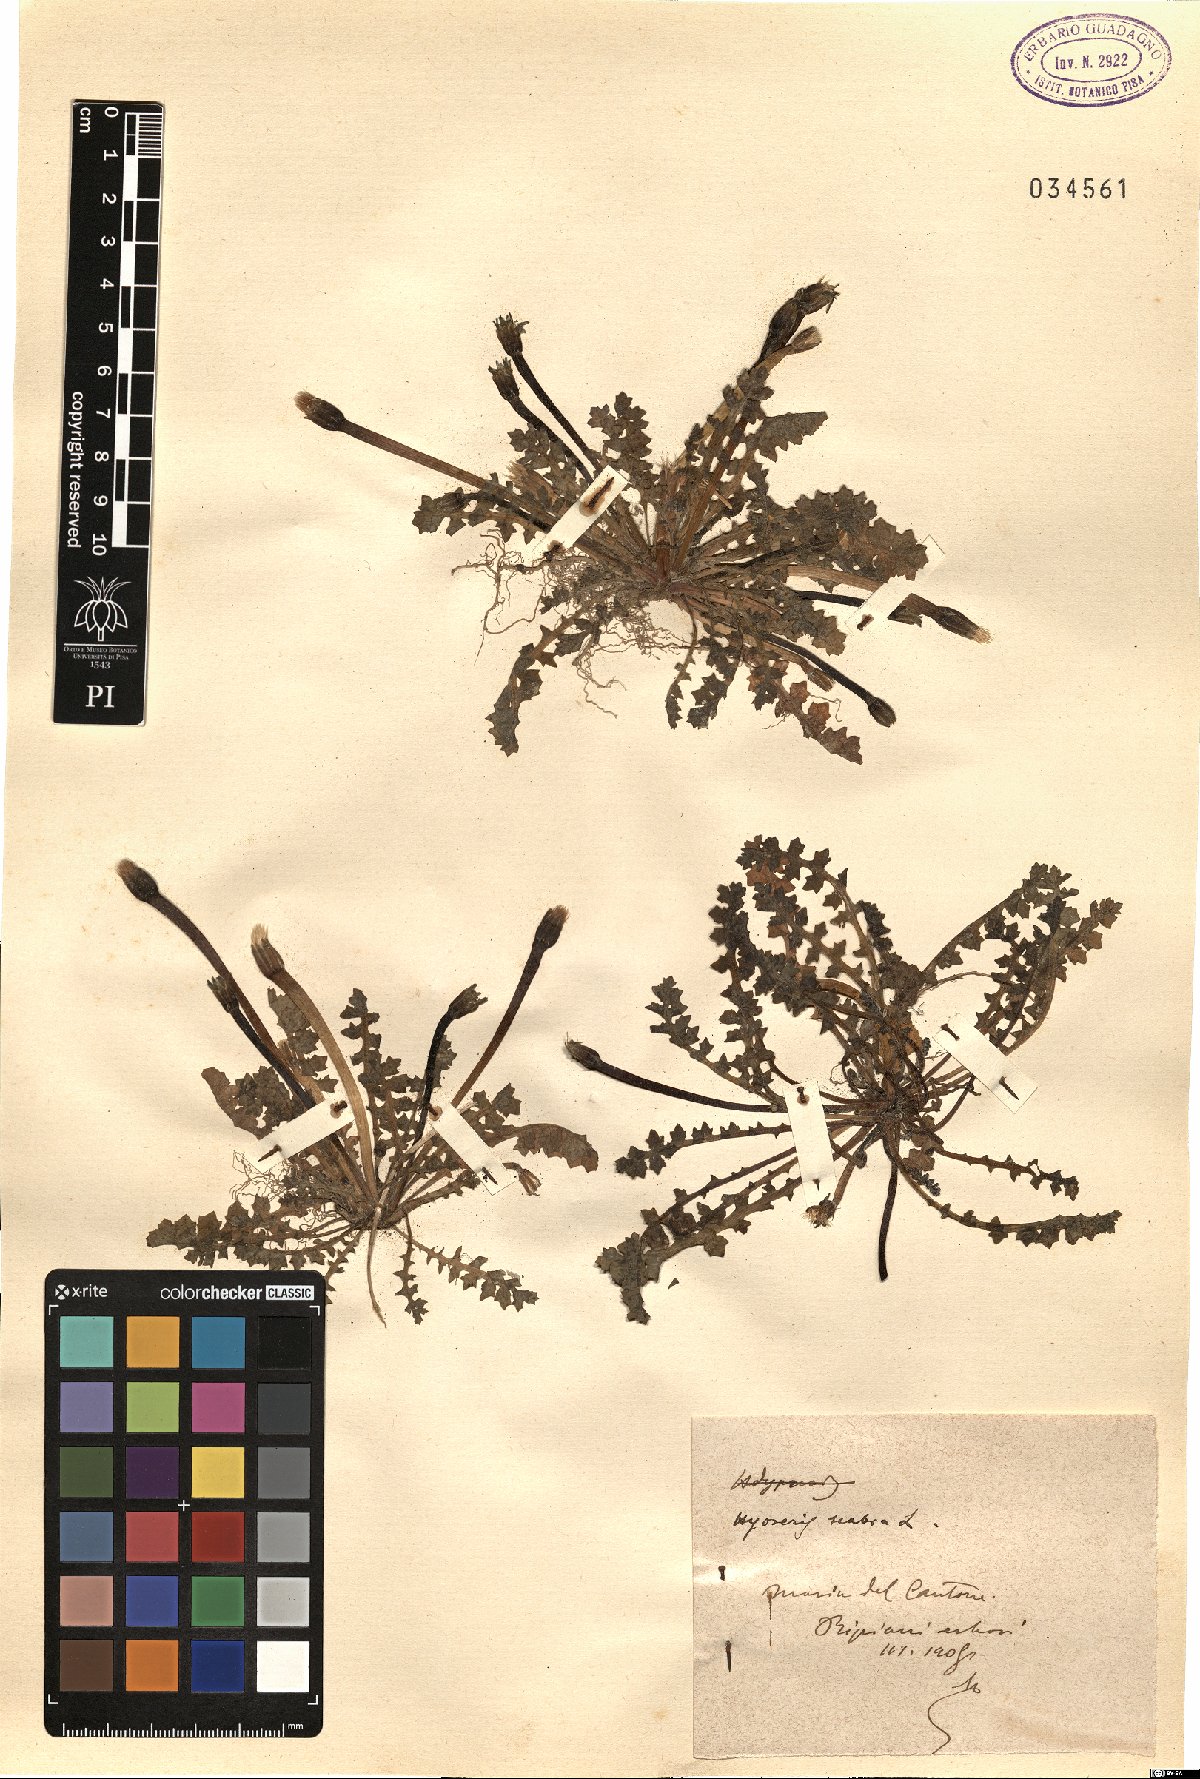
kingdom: Plantae
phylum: Tracheophyta
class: Magnoliopsida
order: Asterales
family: Asteraceae
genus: Hyoseris
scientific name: Hyoseris scabra
